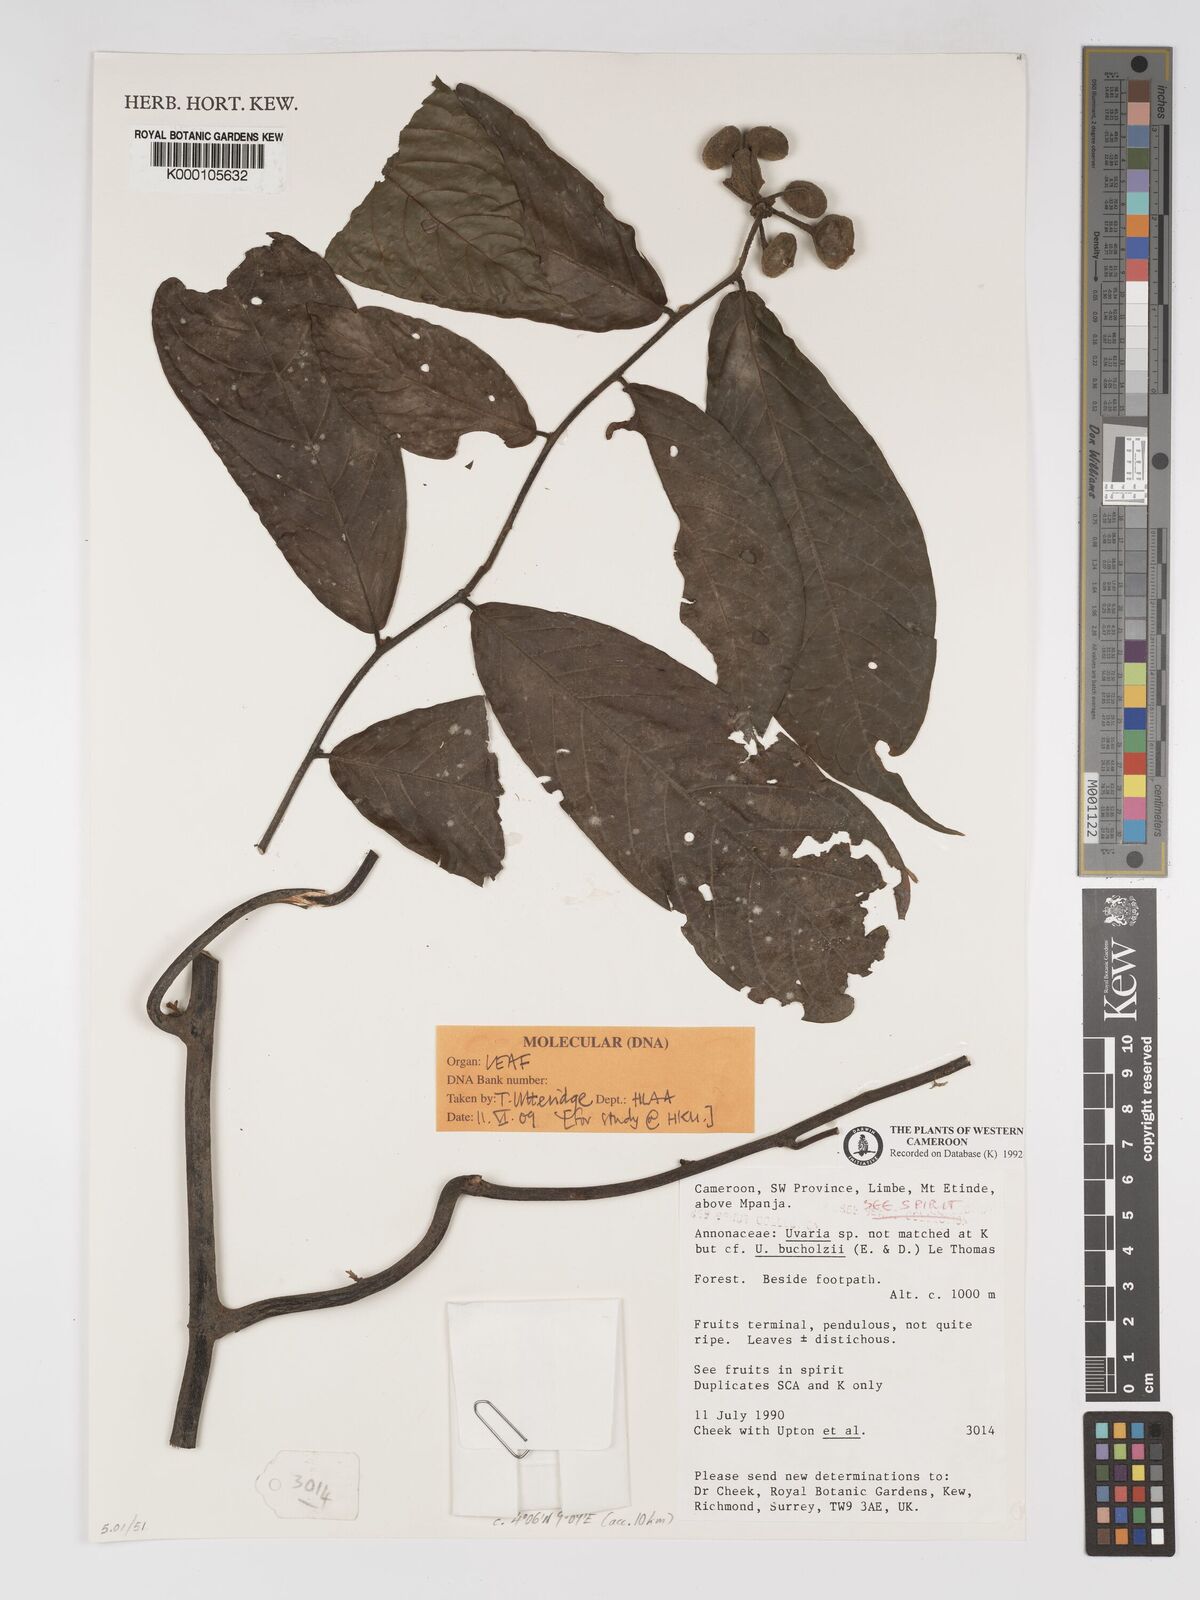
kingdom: Plantae
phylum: Tracheophyta
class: Magnoliopsida
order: Magnoliales
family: Annonaceae
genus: Uvaria
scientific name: Uvaria
